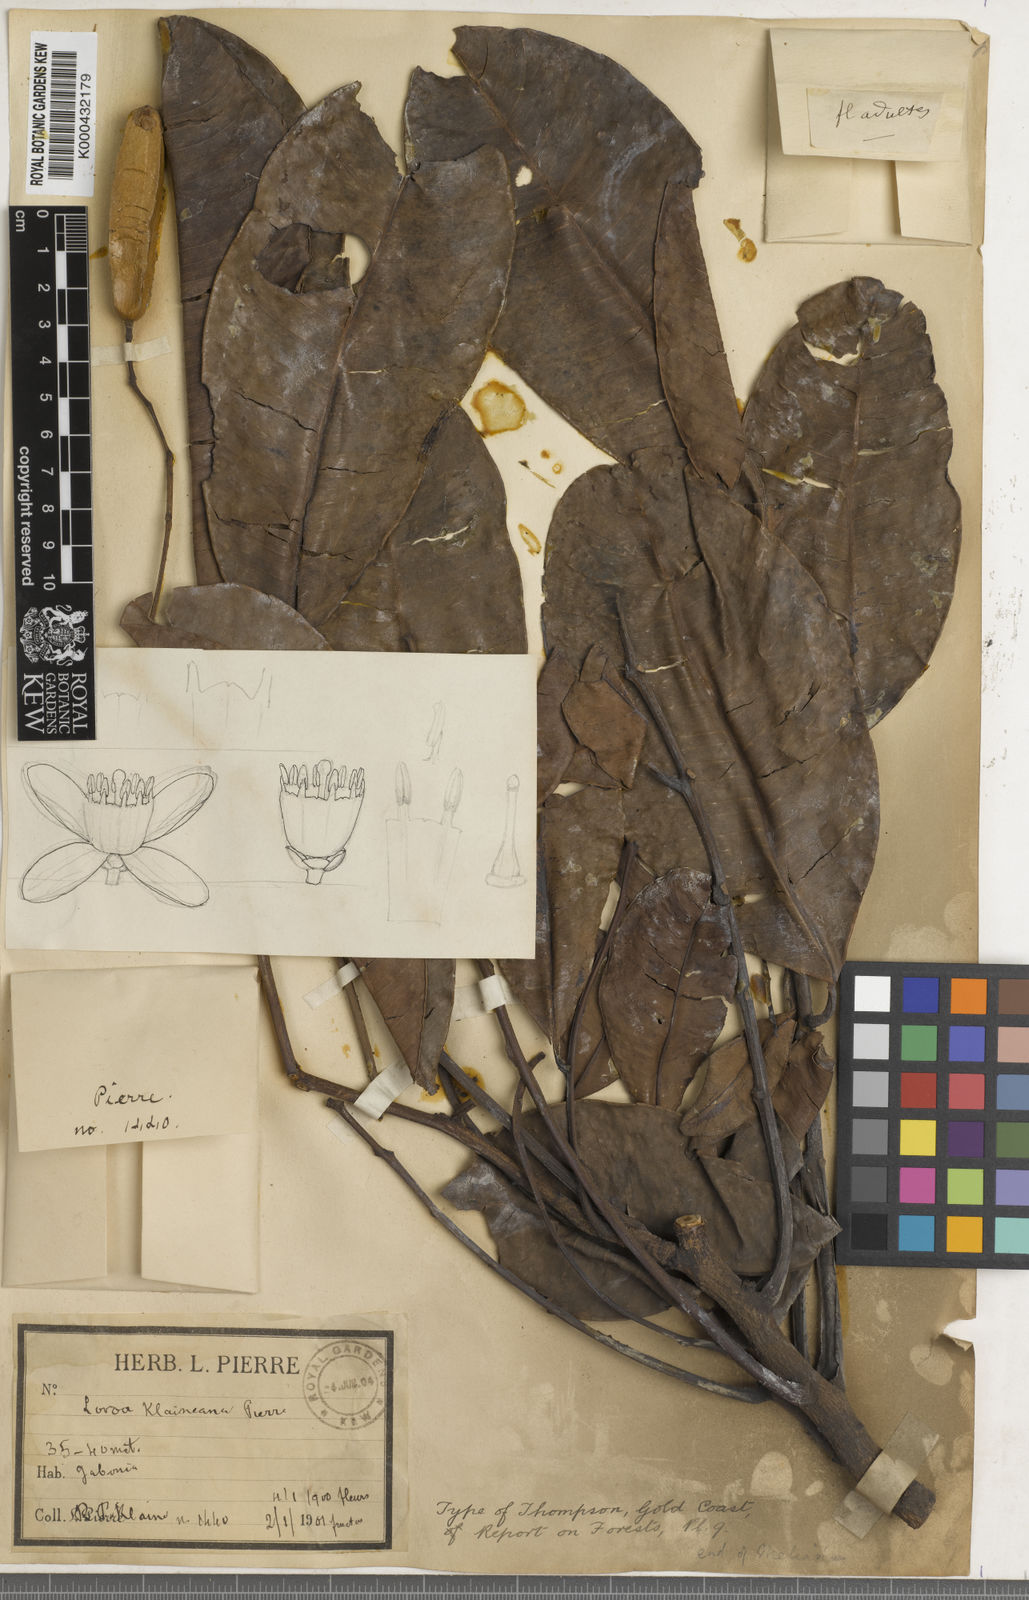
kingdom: Plantae
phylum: Tracheophyta
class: Magnoliopsida
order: Sapindales
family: Meliaceae
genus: Lovoa
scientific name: Lovoa trichilioides
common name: Congowood
